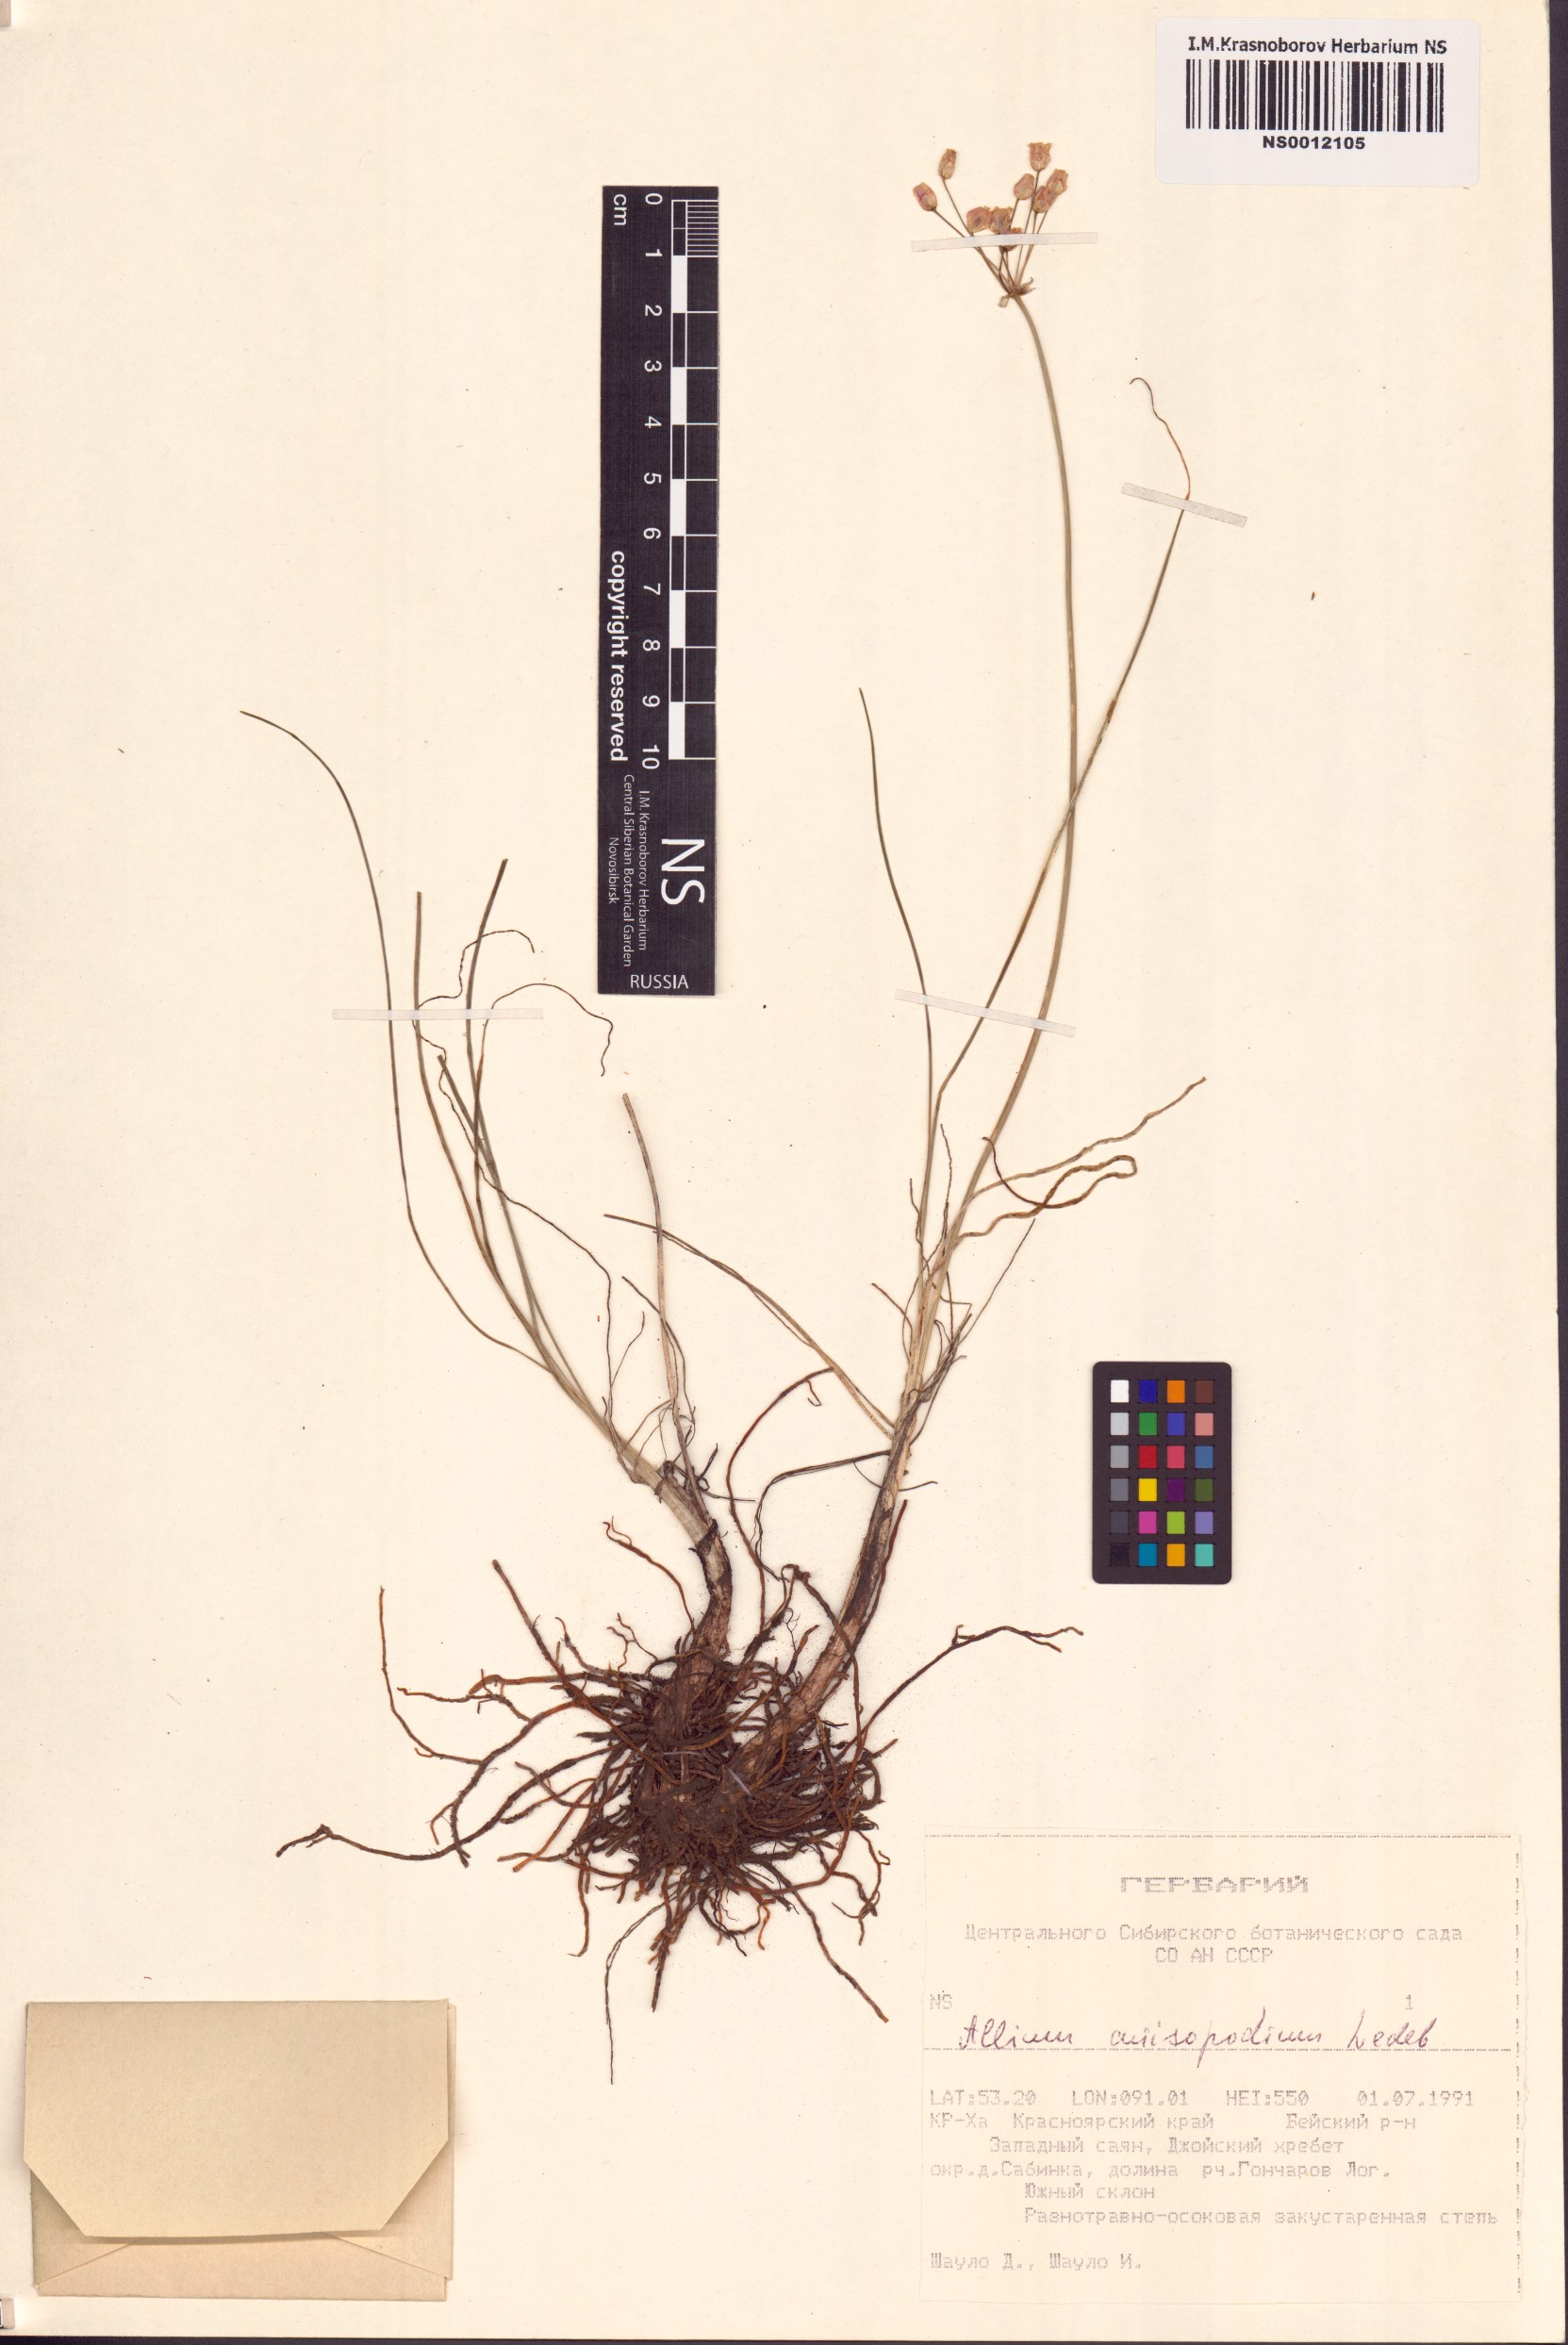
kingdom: Plantae
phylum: Tracheophyta
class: Liliopsida
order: Asparagales
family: Amaryllidaceae
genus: Allium
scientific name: Allium anisopodium
